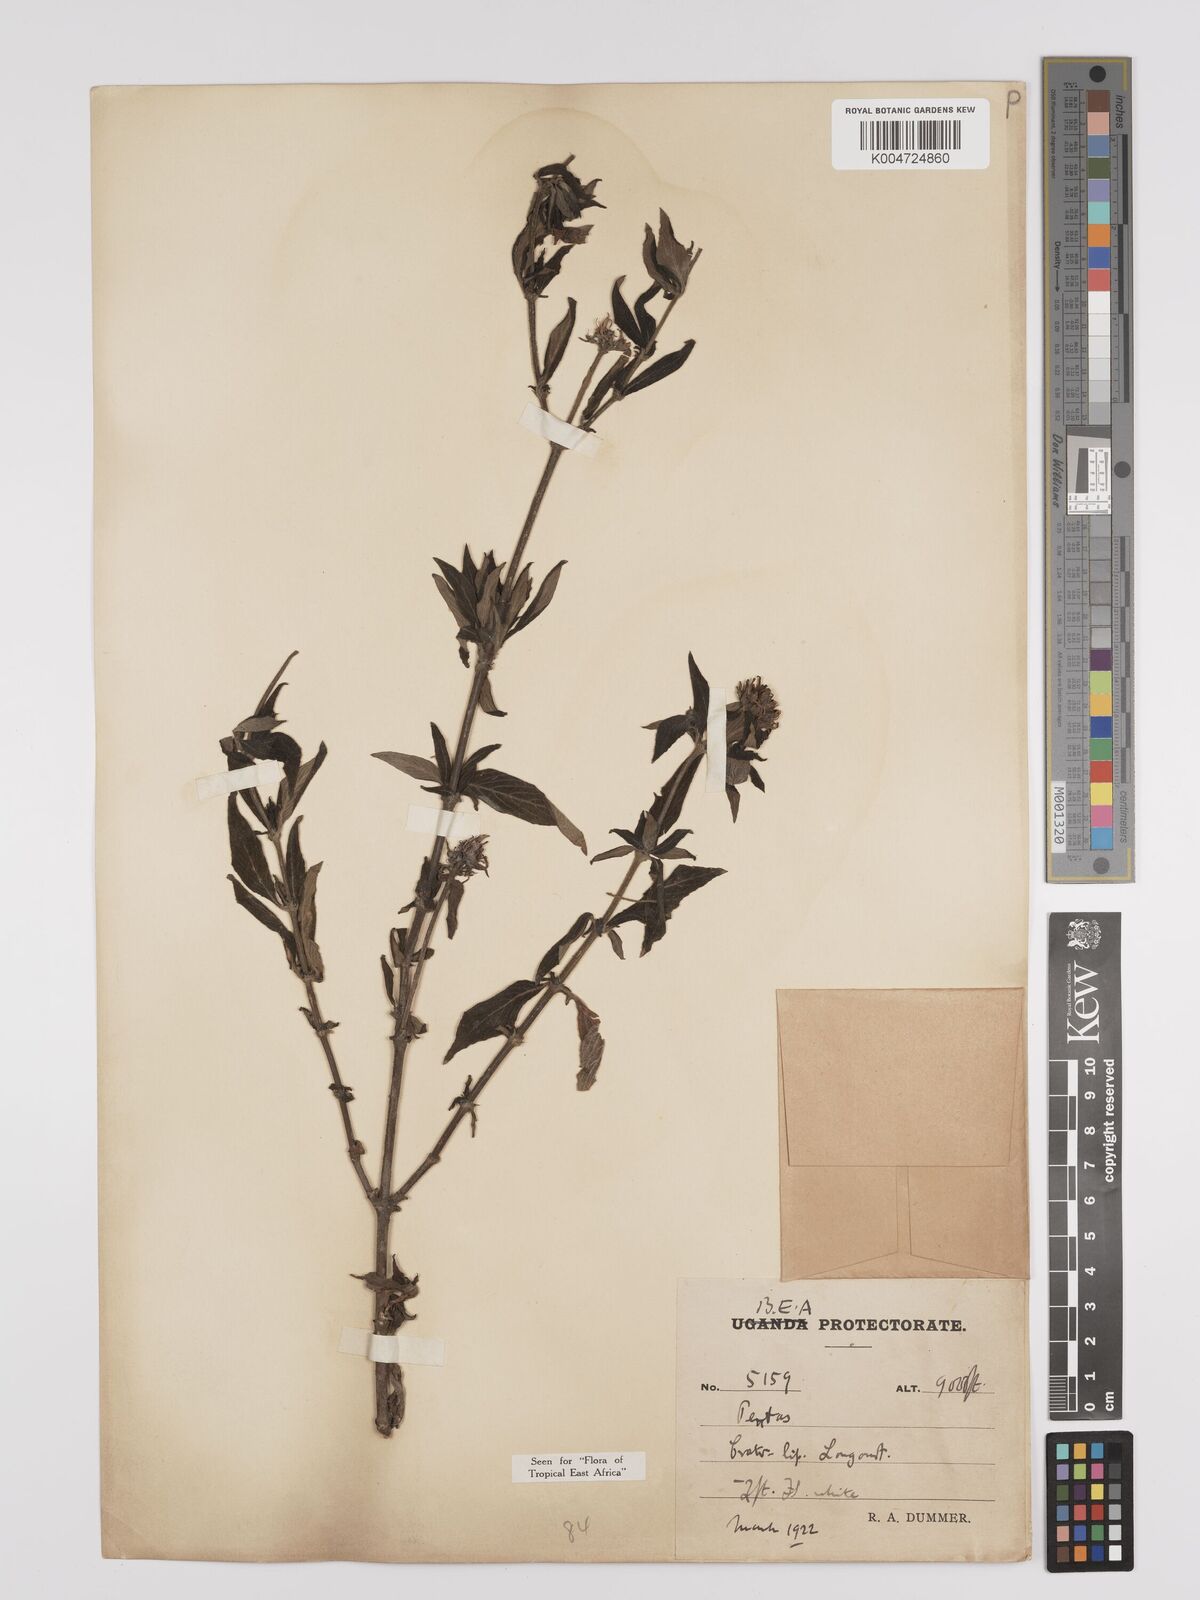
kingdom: Plantae
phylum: Tracheophyta
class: Magnoliopsida
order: Gentianales
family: Rubiaceae
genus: Pentas
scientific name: Pentas zanzibarica
